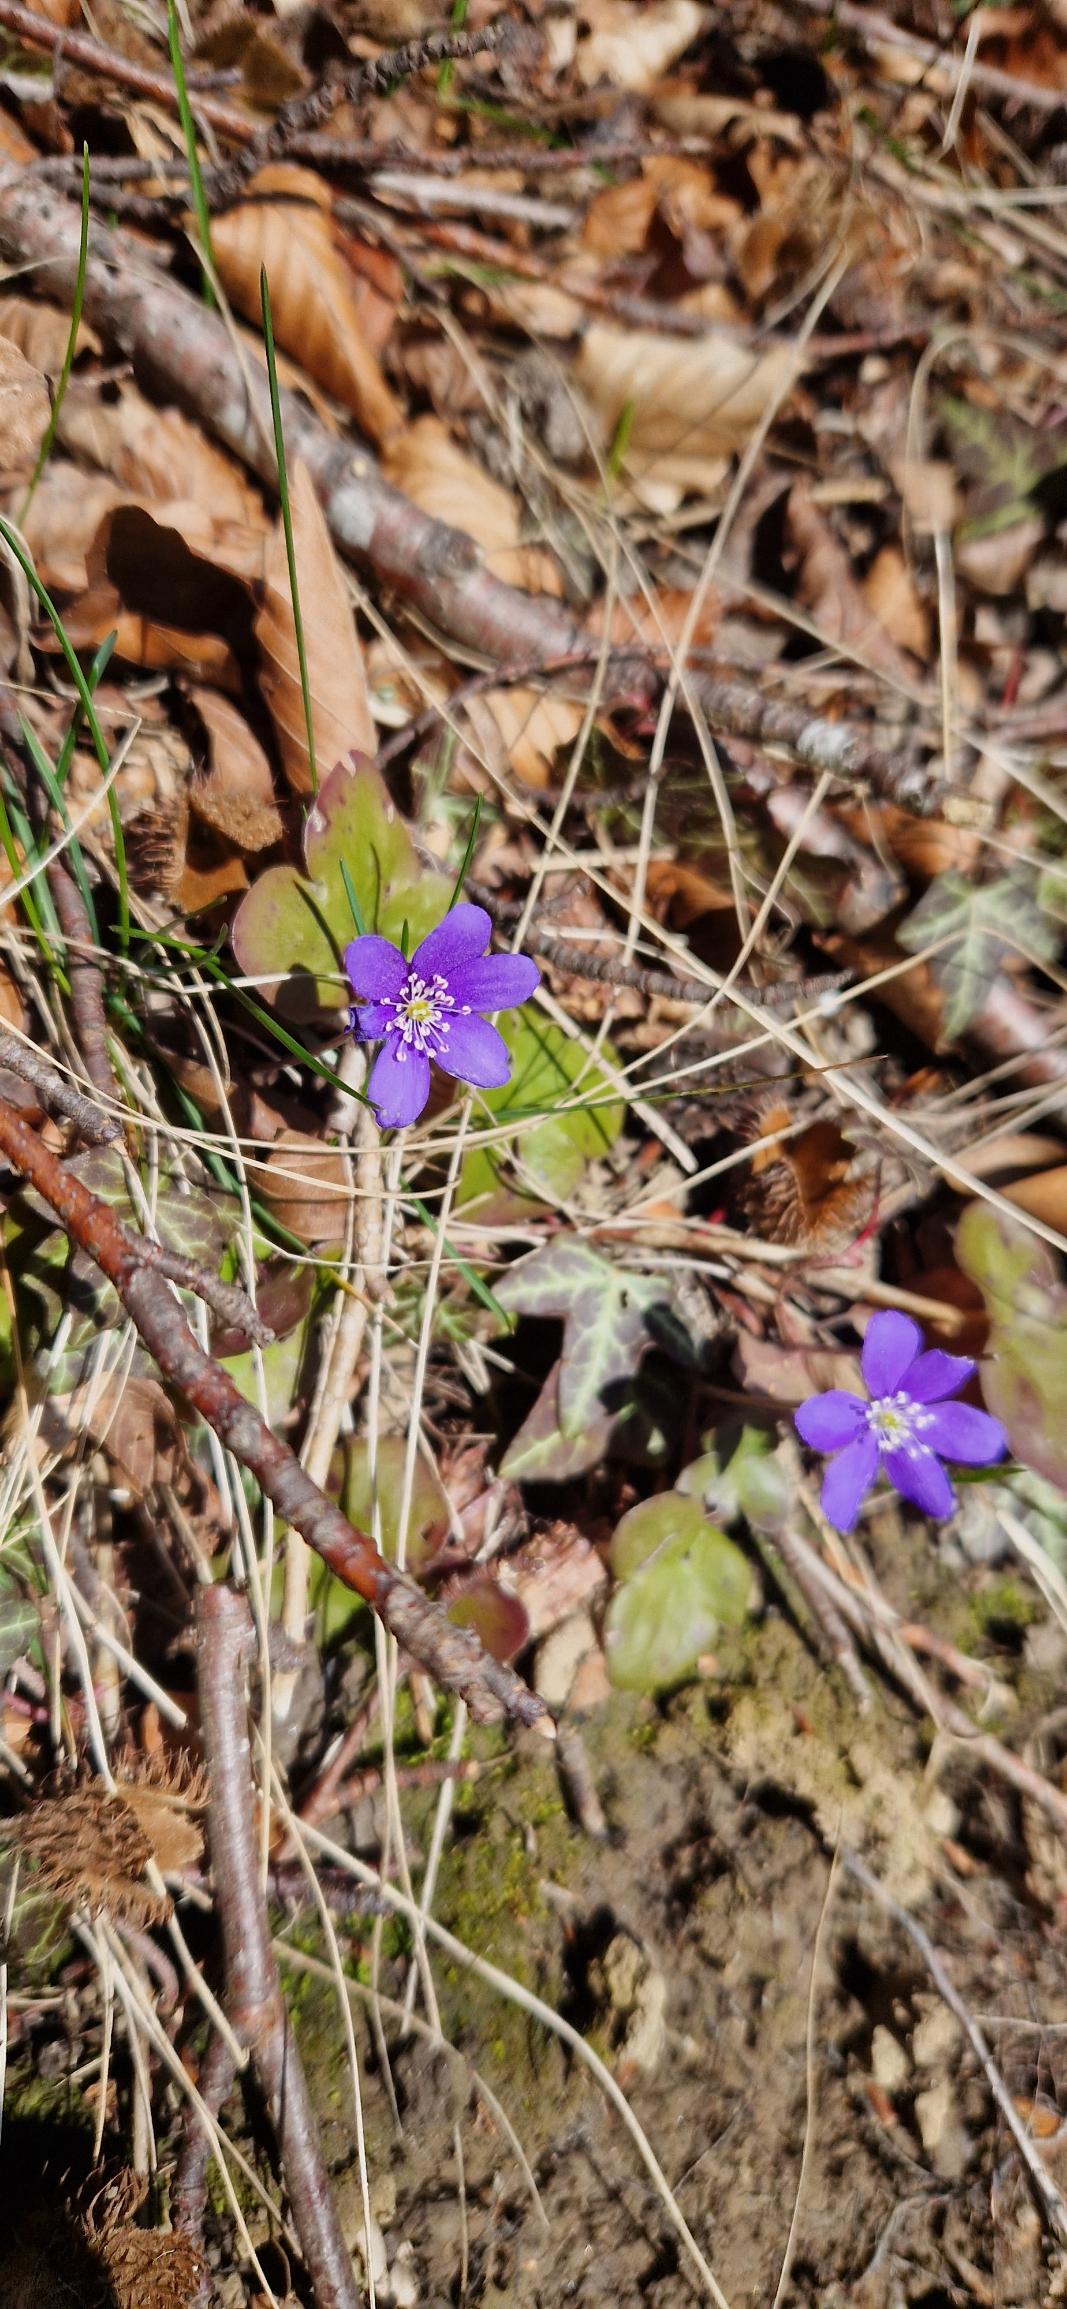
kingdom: Plantae
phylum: Tracheophyta
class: Magnoliopsida
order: Ranunculales
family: Ranunculaceae
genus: Hepatica
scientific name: Hepatica nobilis
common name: Blå anemone
